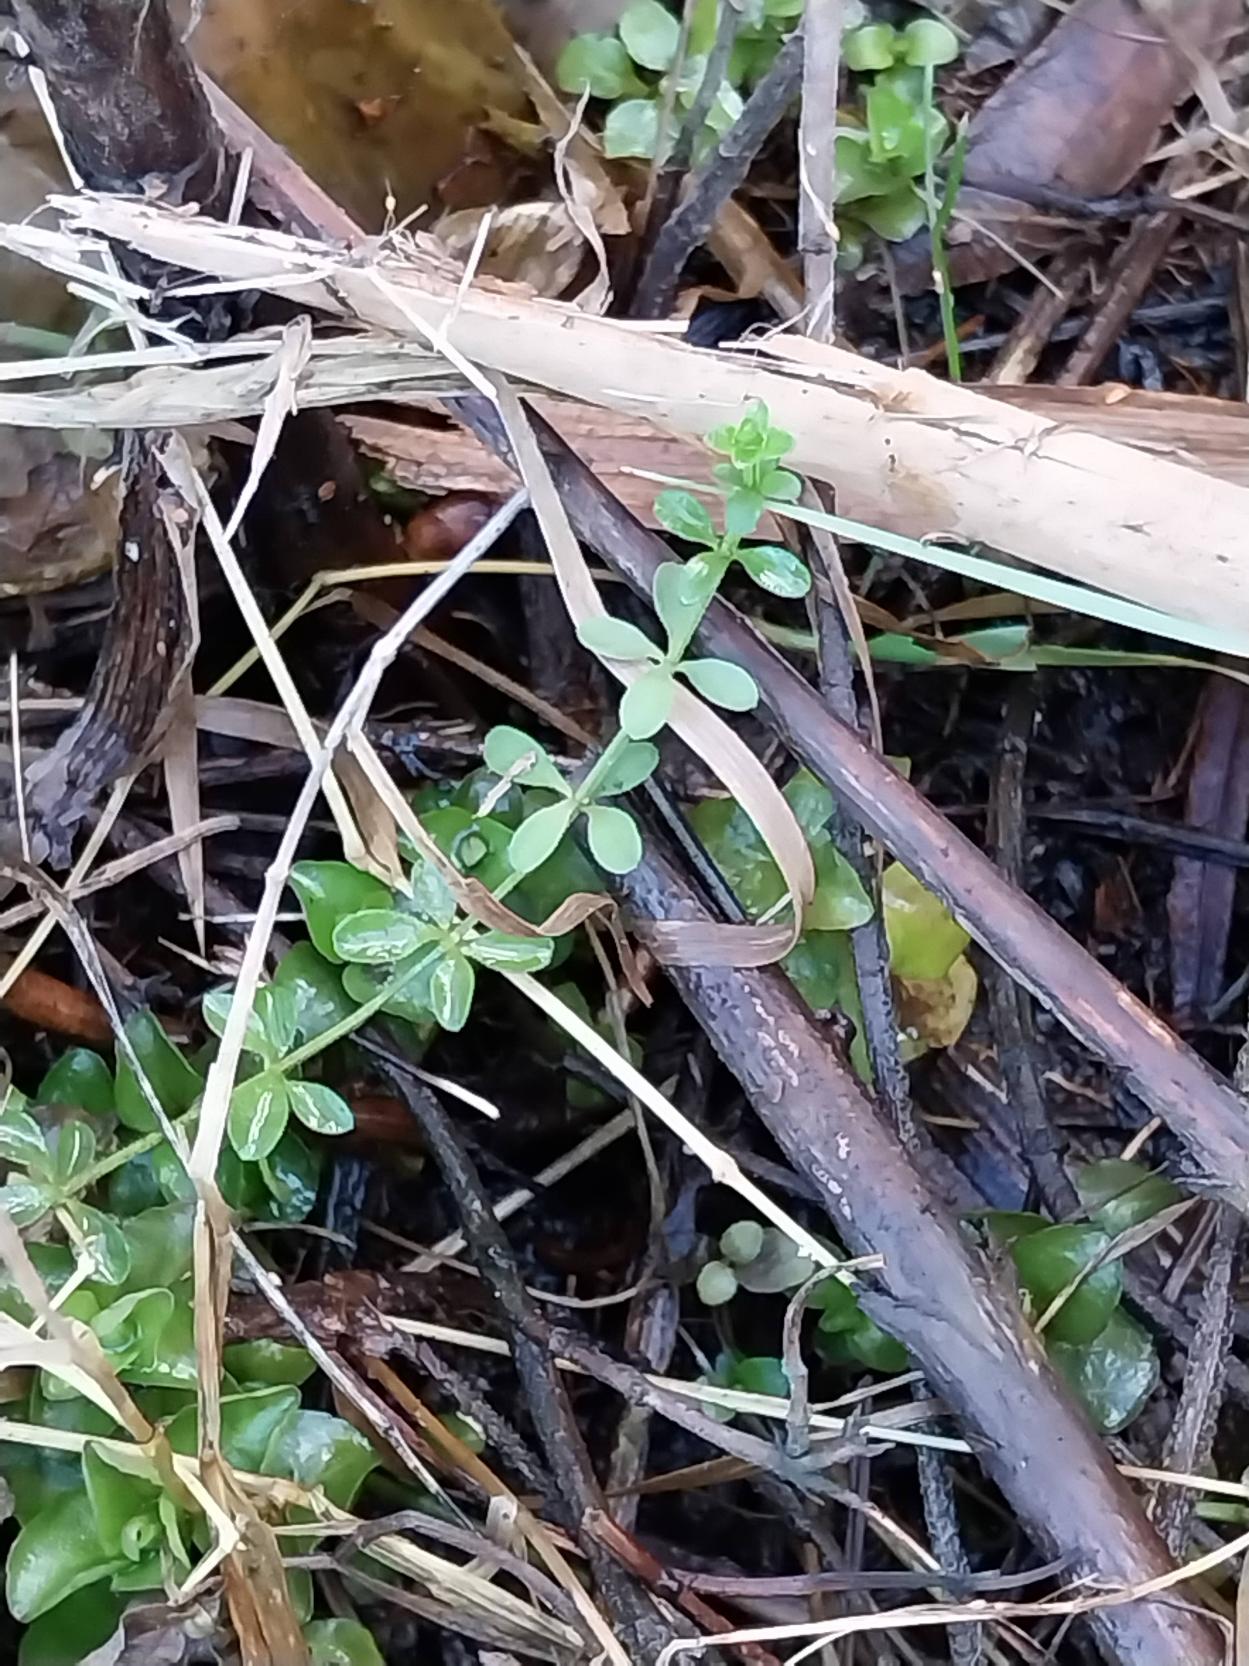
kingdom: Plantae
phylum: Tracheophyta
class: Magnoliopsida
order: Gentianales
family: Rubiaceae
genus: Galium
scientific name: Galium palustre
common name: Kær-snerre
